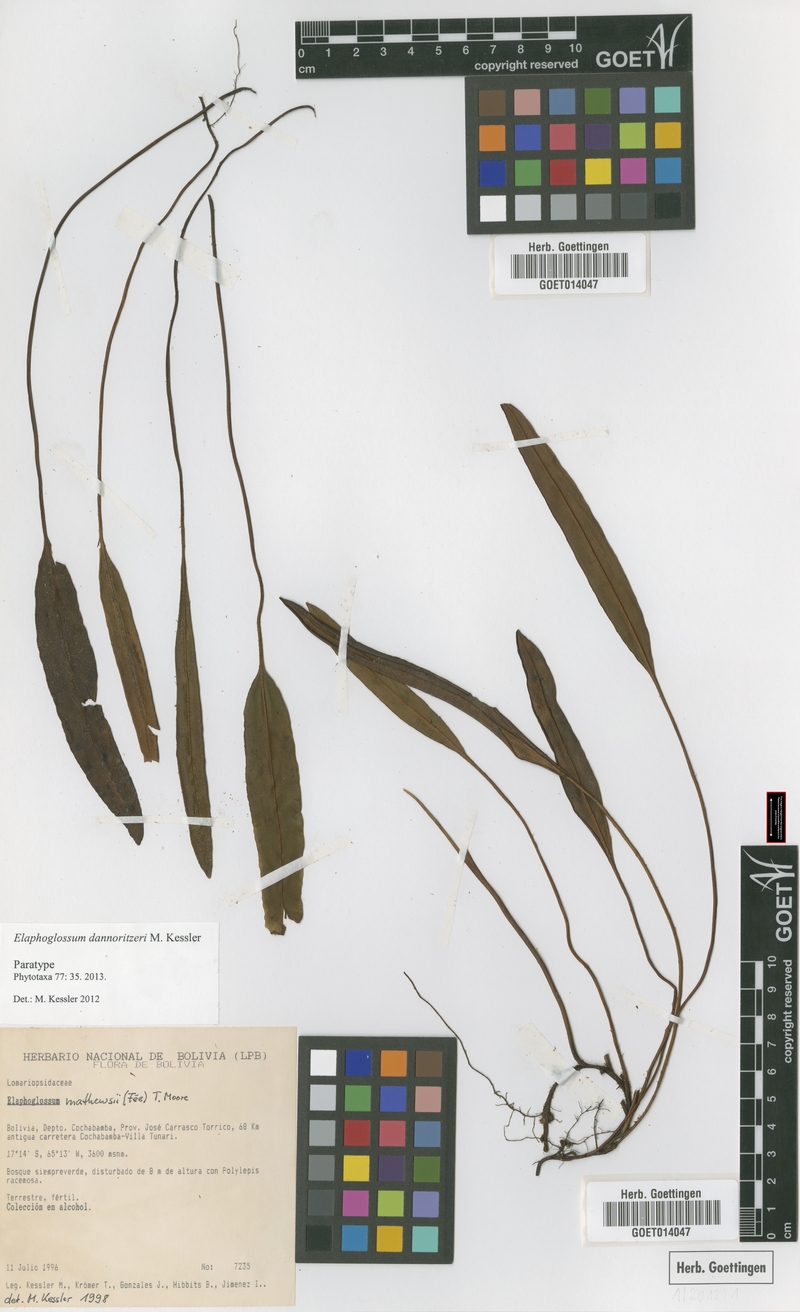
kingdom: Plantae
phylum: Tracheophyta
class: Polypodiopsida
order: Polypodiales
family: Dryopteridaceae
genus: Elaphoglossum
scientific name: Elaphoglossum dannoritzeri
